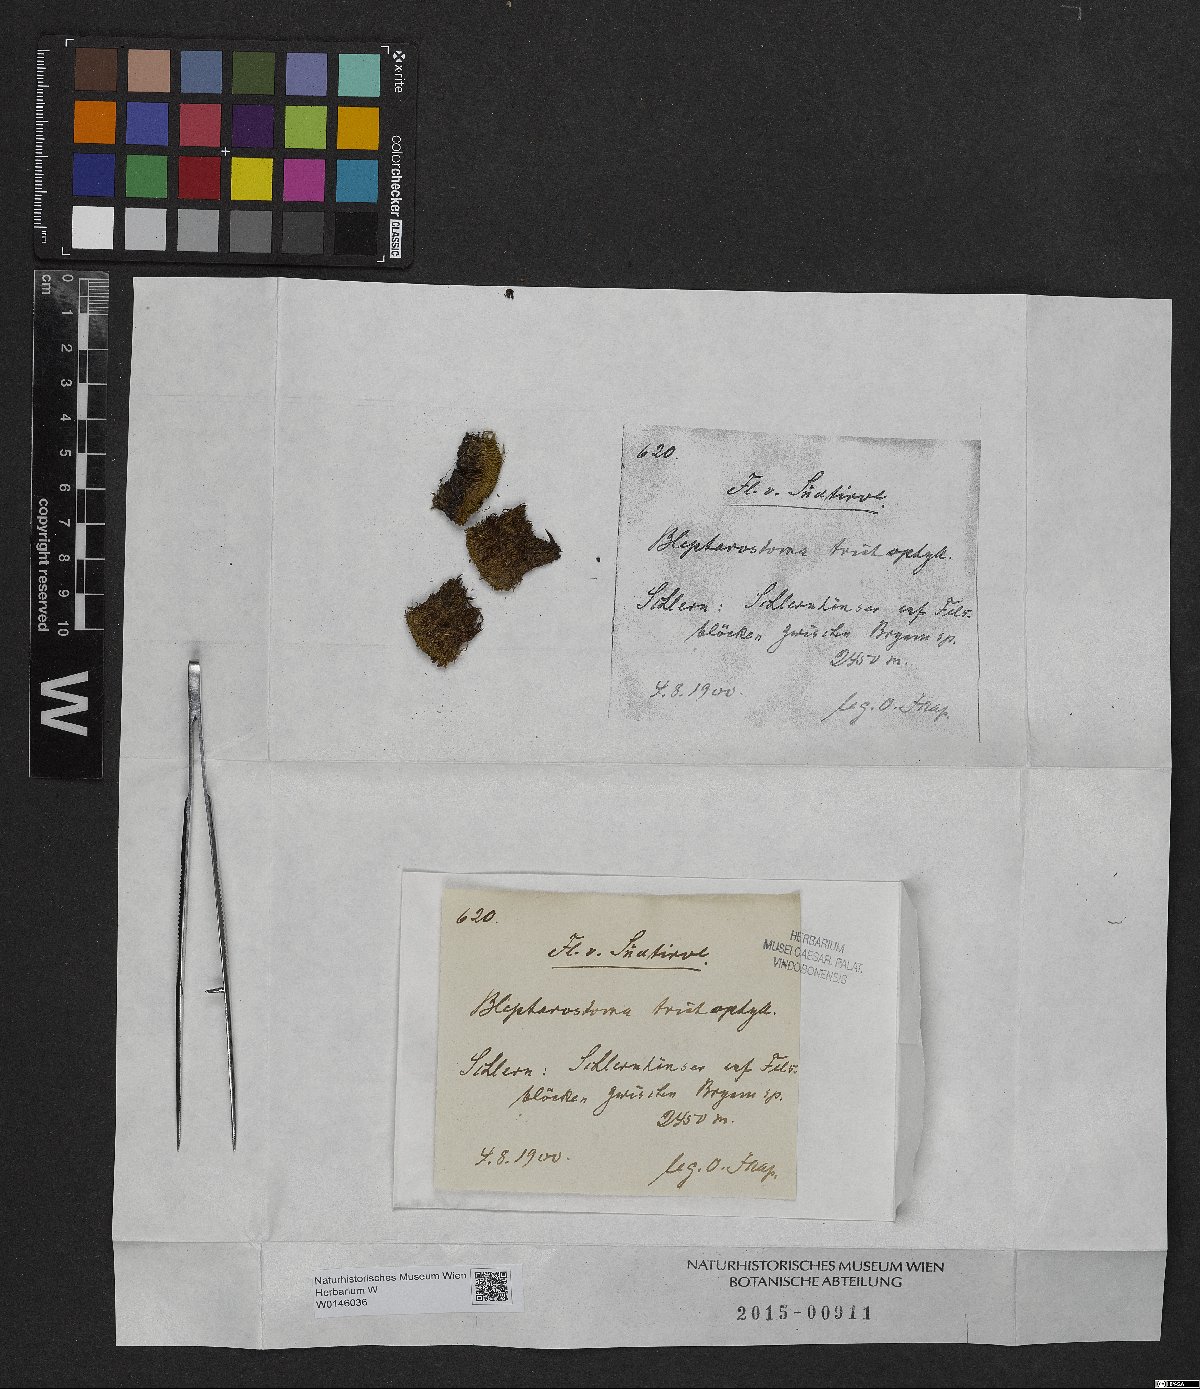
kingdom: Plantae
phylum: Marchantiophyta
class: Jungermanniopsida
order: Jungermanniales
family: Blepharostomataceae
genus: Blepharostoma
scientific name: Blepharostoma trichophyllum
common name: Hairy threadwort
